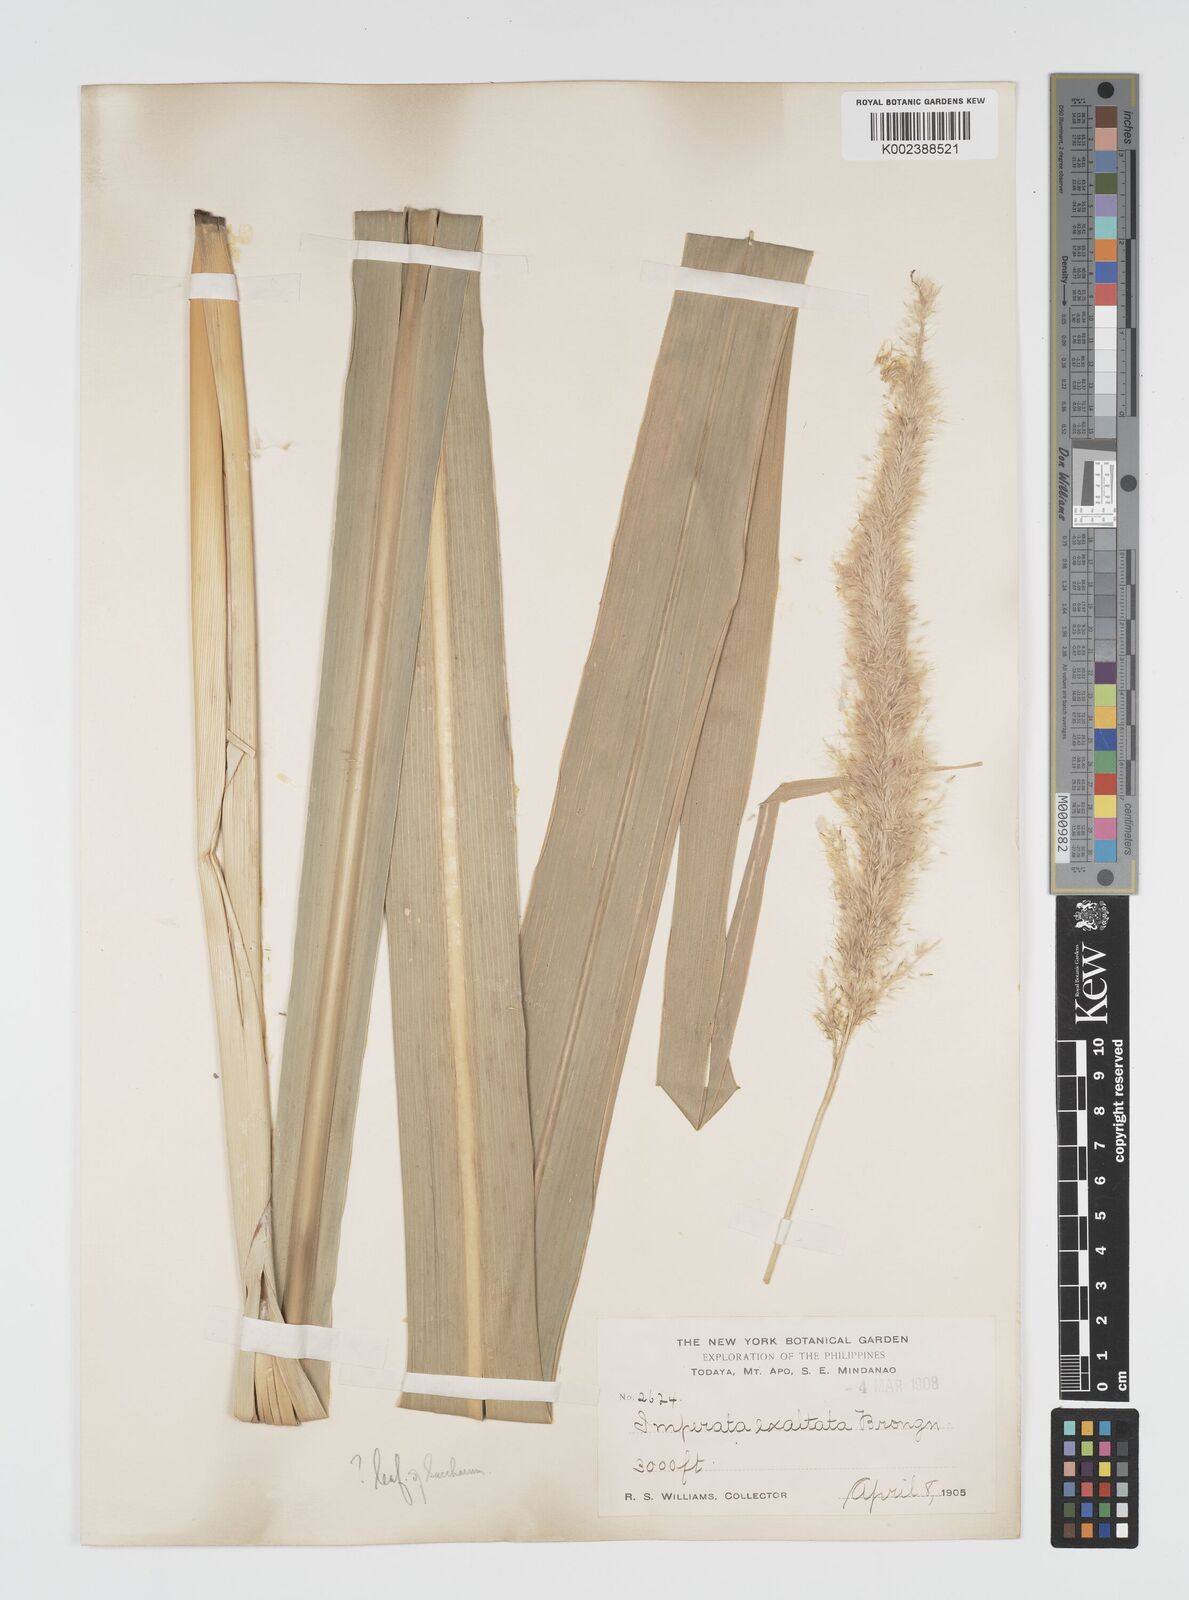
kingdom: Plantae
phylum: Tracheophyta
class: Liliopsida
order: Poales
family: Poaceae
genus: Imperata
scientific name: Imperata conferta
